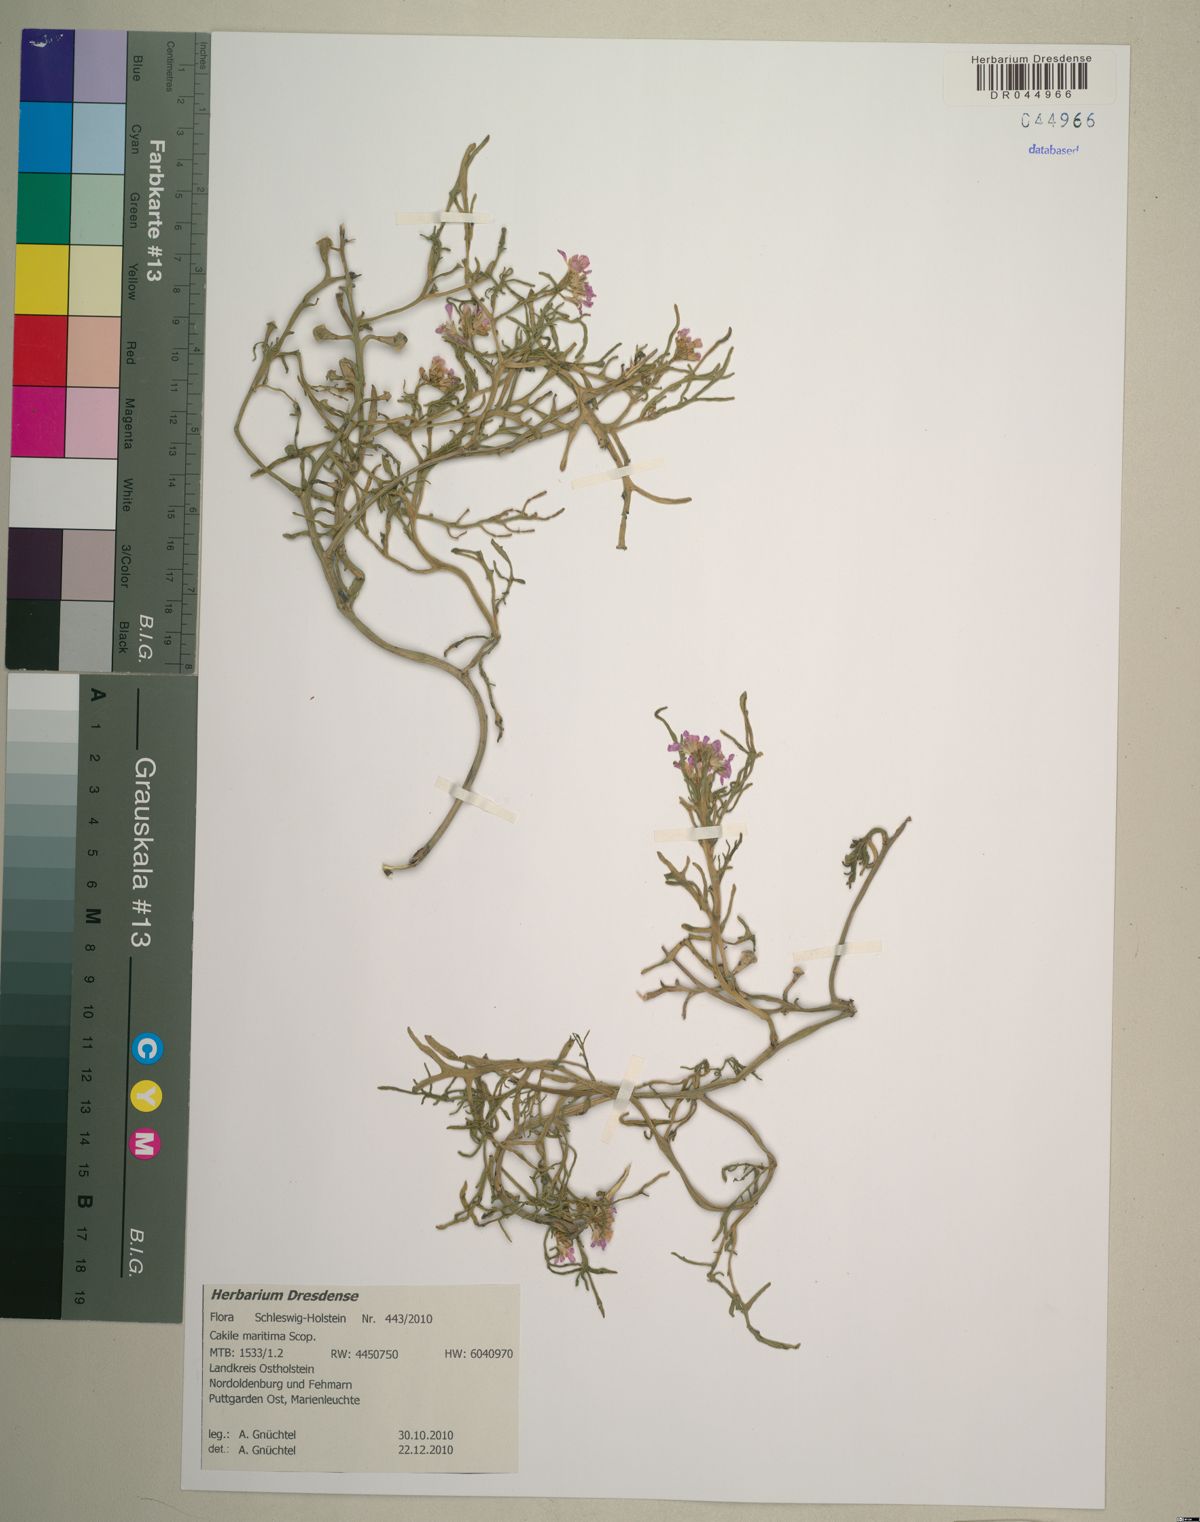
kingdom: Plantae
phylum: Tracheophyta
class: Magnoliopsida
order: Brassicales
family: Brassicaceae
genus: Cakile
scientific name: Cakile maritima
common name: Sea rocket
